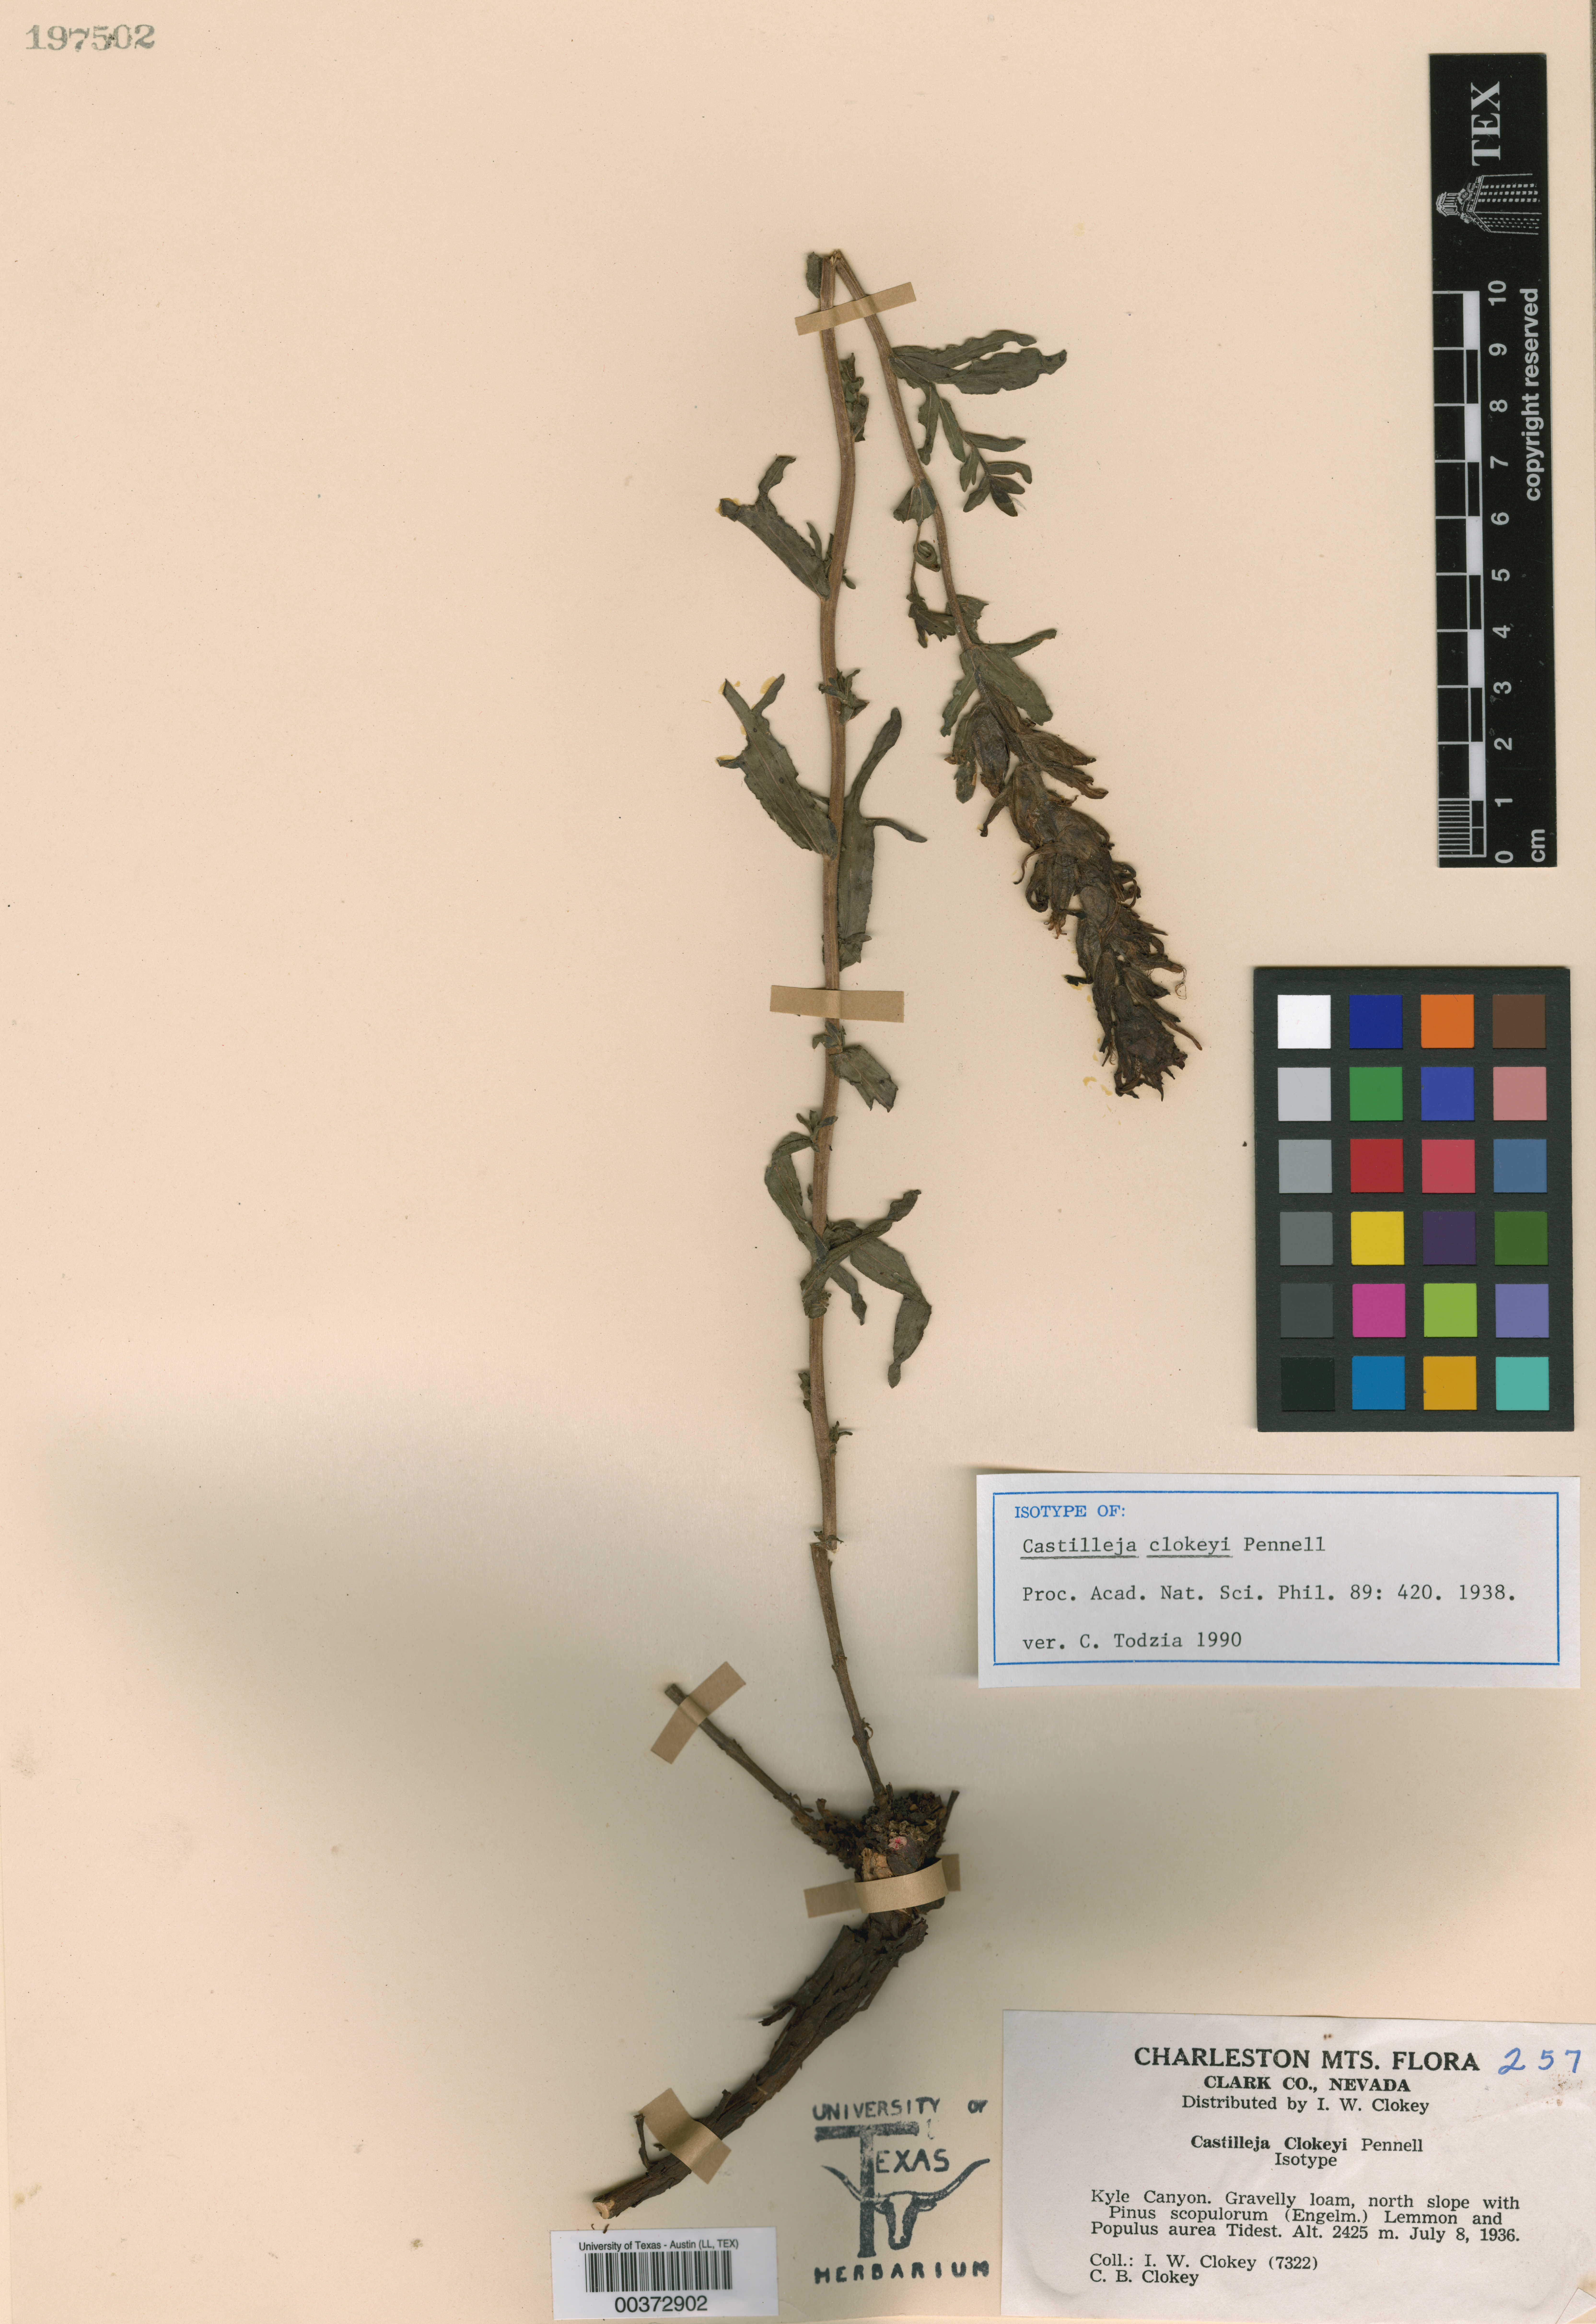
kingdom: Plantae
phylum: Tracheophyta
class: Magnoliopsida
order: Lamiales
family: Orobanchaceae
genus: Castilleja
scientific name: Castilleja martini
